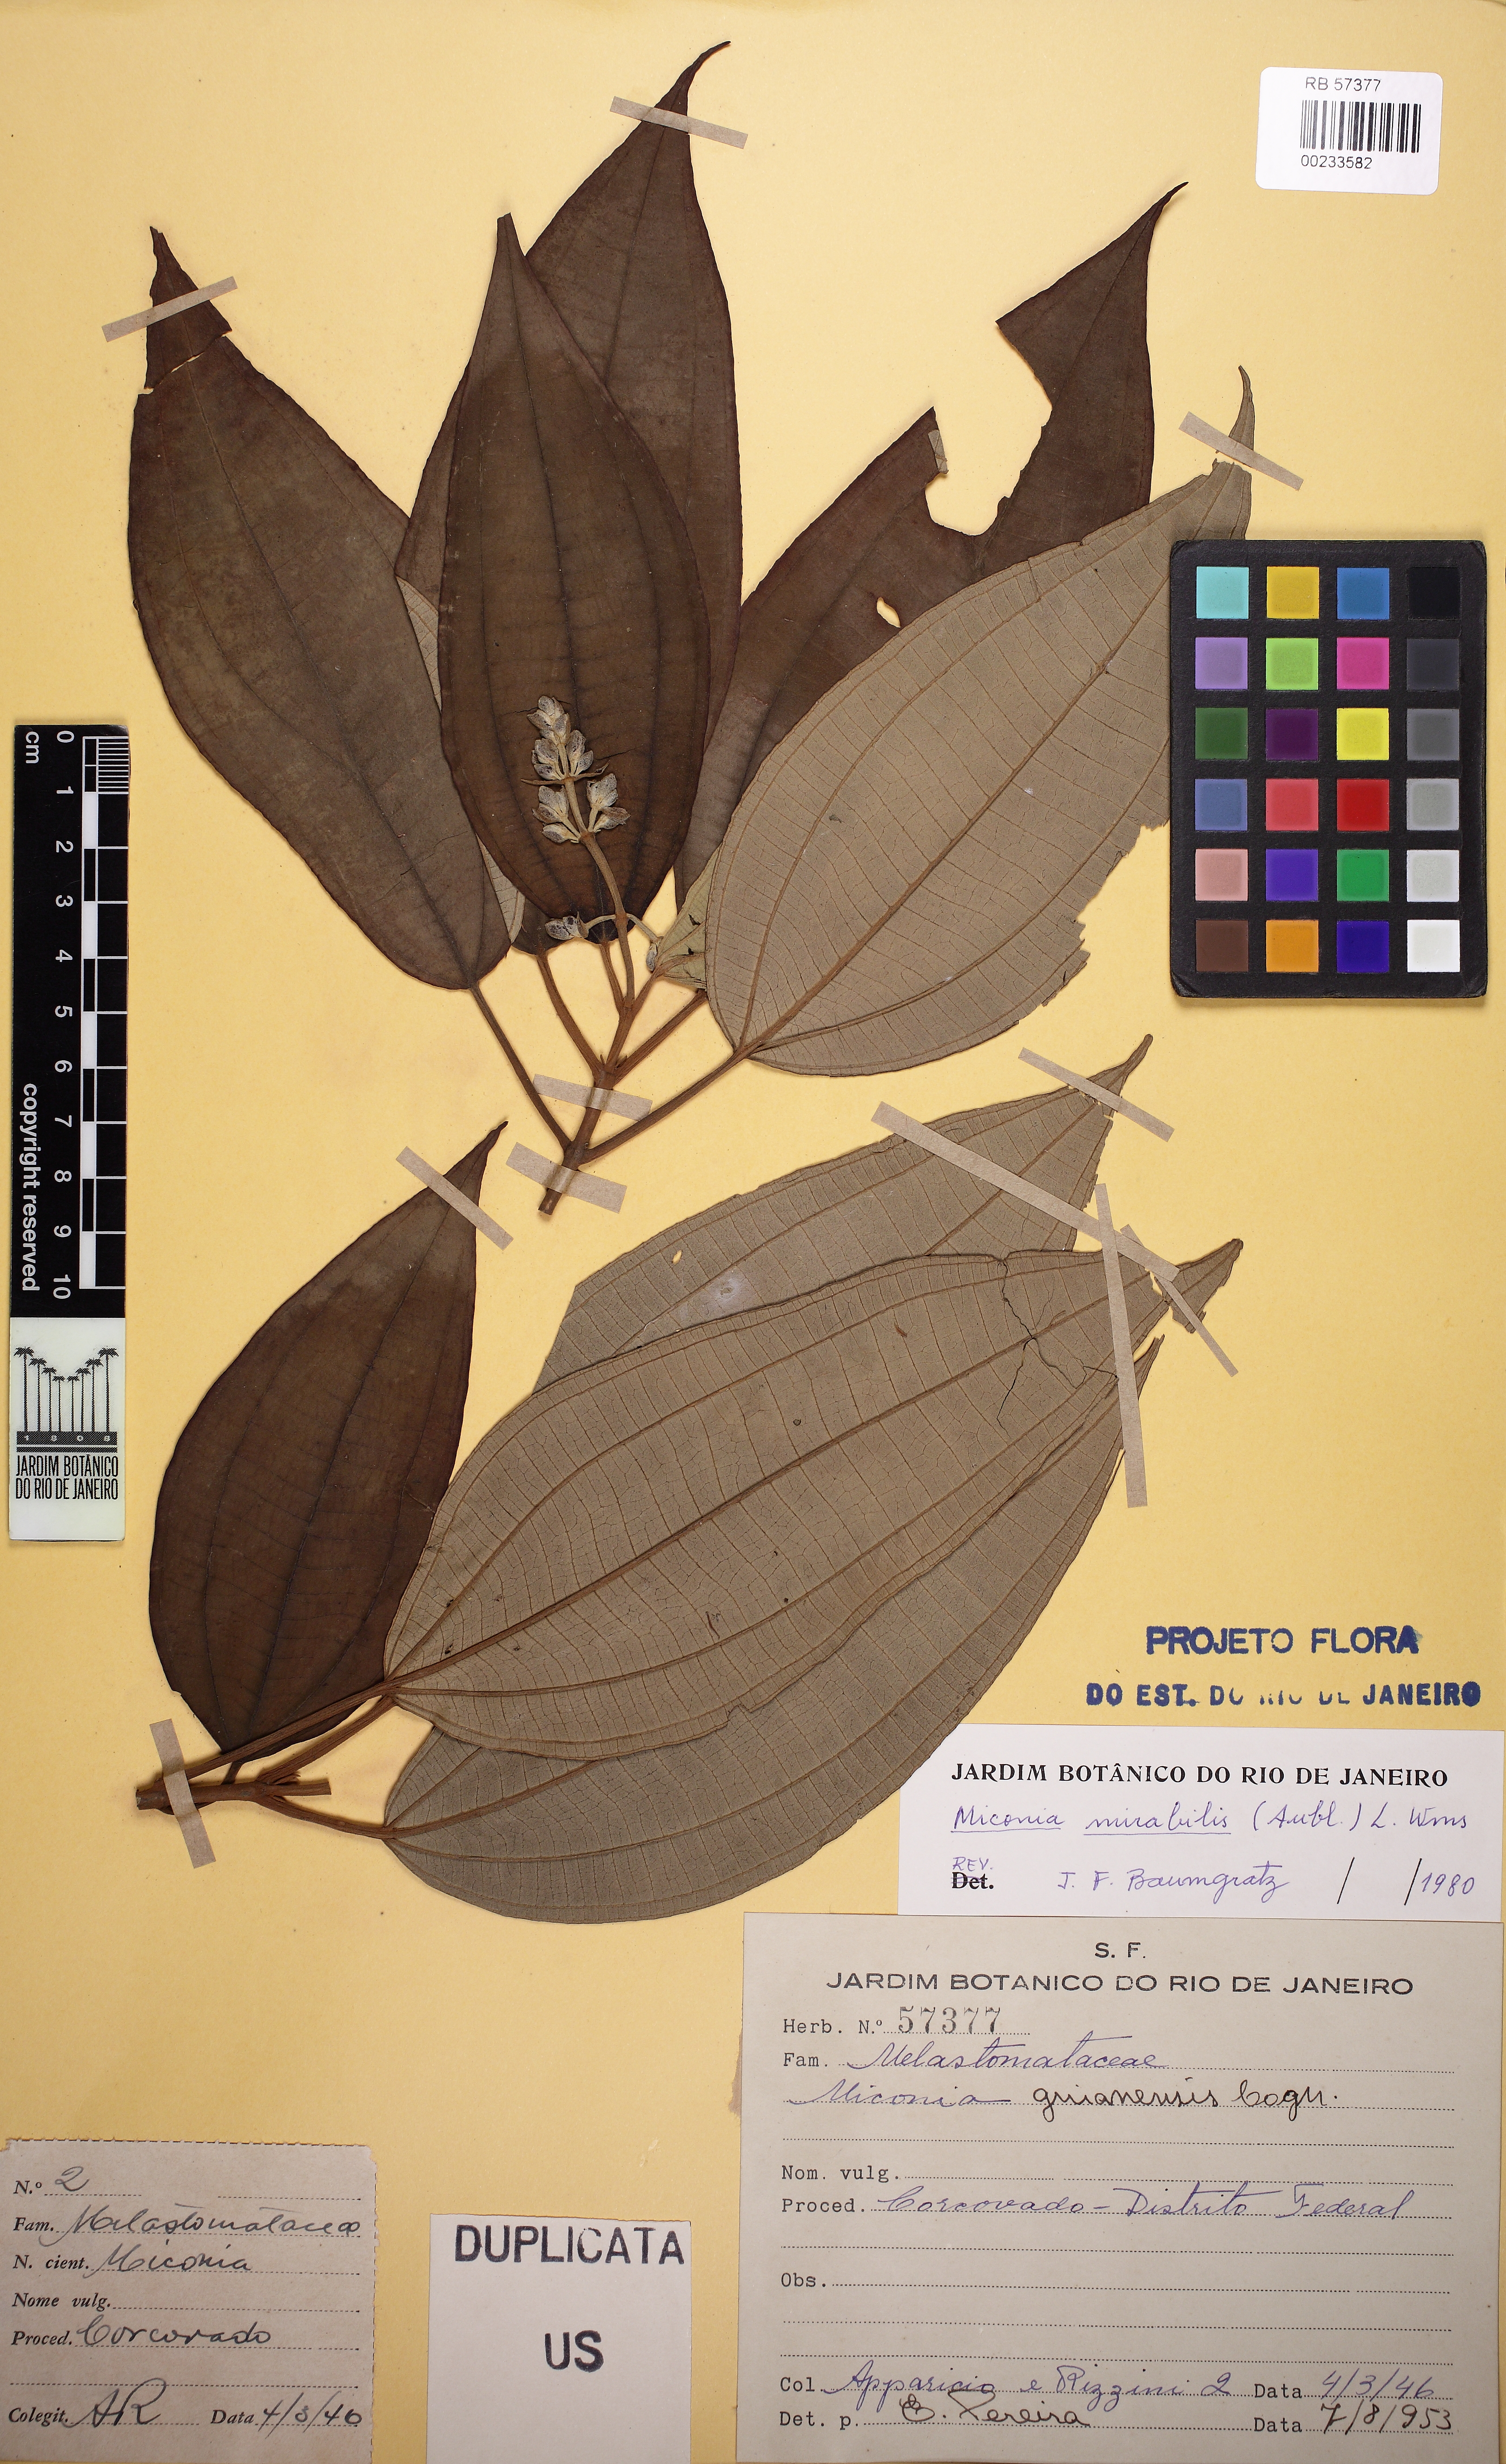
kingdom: Plantae
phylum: Tracheophyta
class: Magnoliopsida
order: Myrtales
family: Melastomataceae
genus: Miconia
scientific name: Miconia mirabilis
